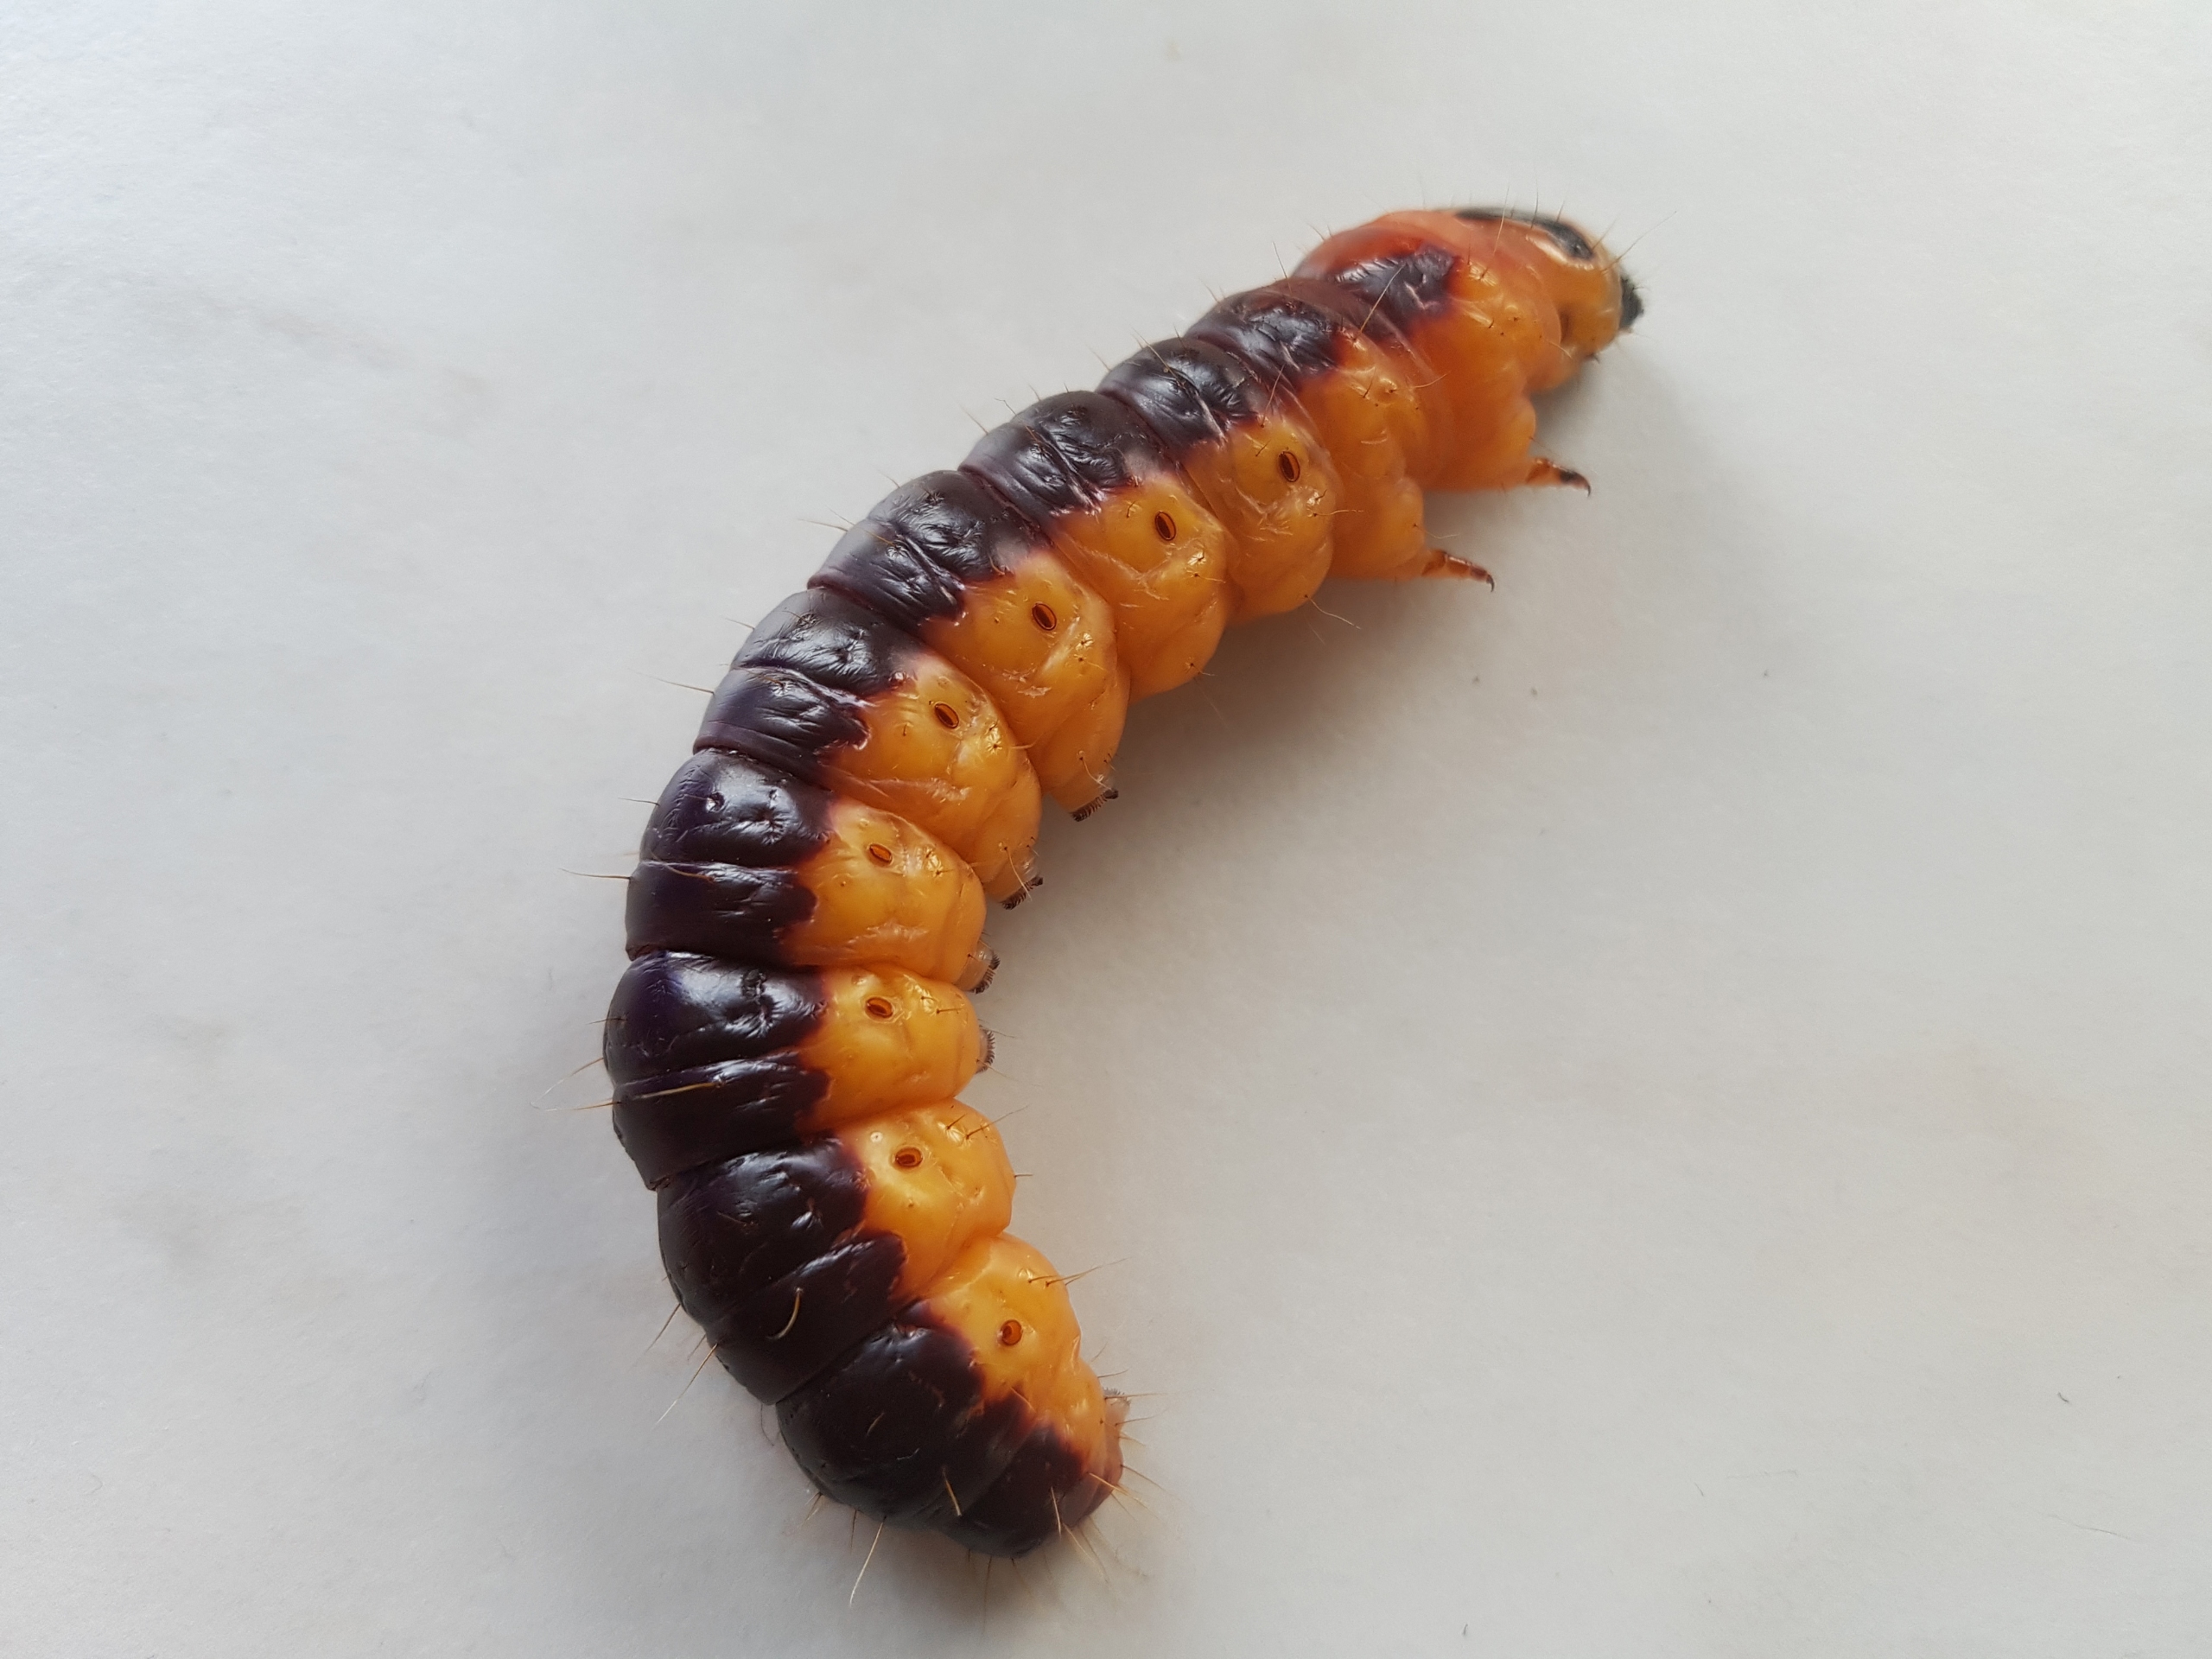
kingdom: Animalia
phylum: Arthropoda
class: Insecta
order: Lepidoptera
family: Cossidae
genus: Cossus
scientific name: Cossus cossus
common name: Pileborer
